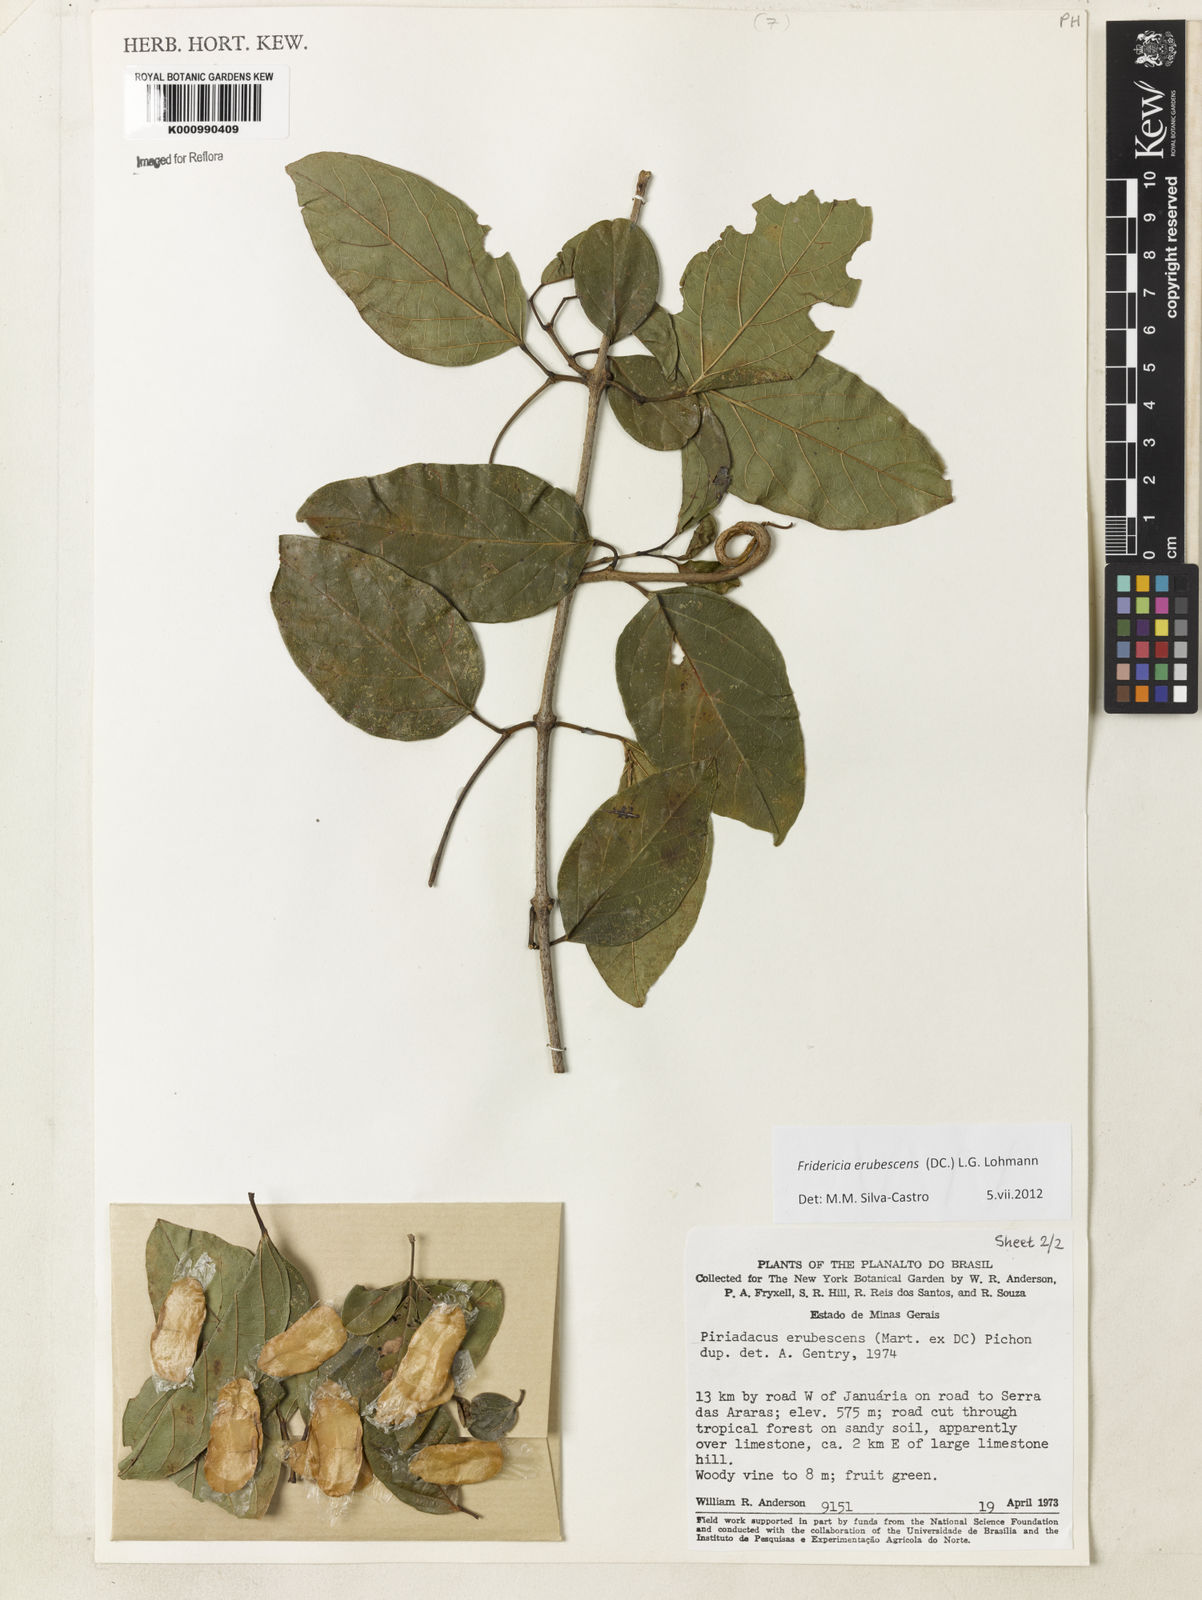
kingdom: Plantae
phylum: Tracheophyta
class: Magnoliopsida
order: Lamiales
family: Bignoniaceae
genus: Fridericia
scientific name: Fridericia erubescens
